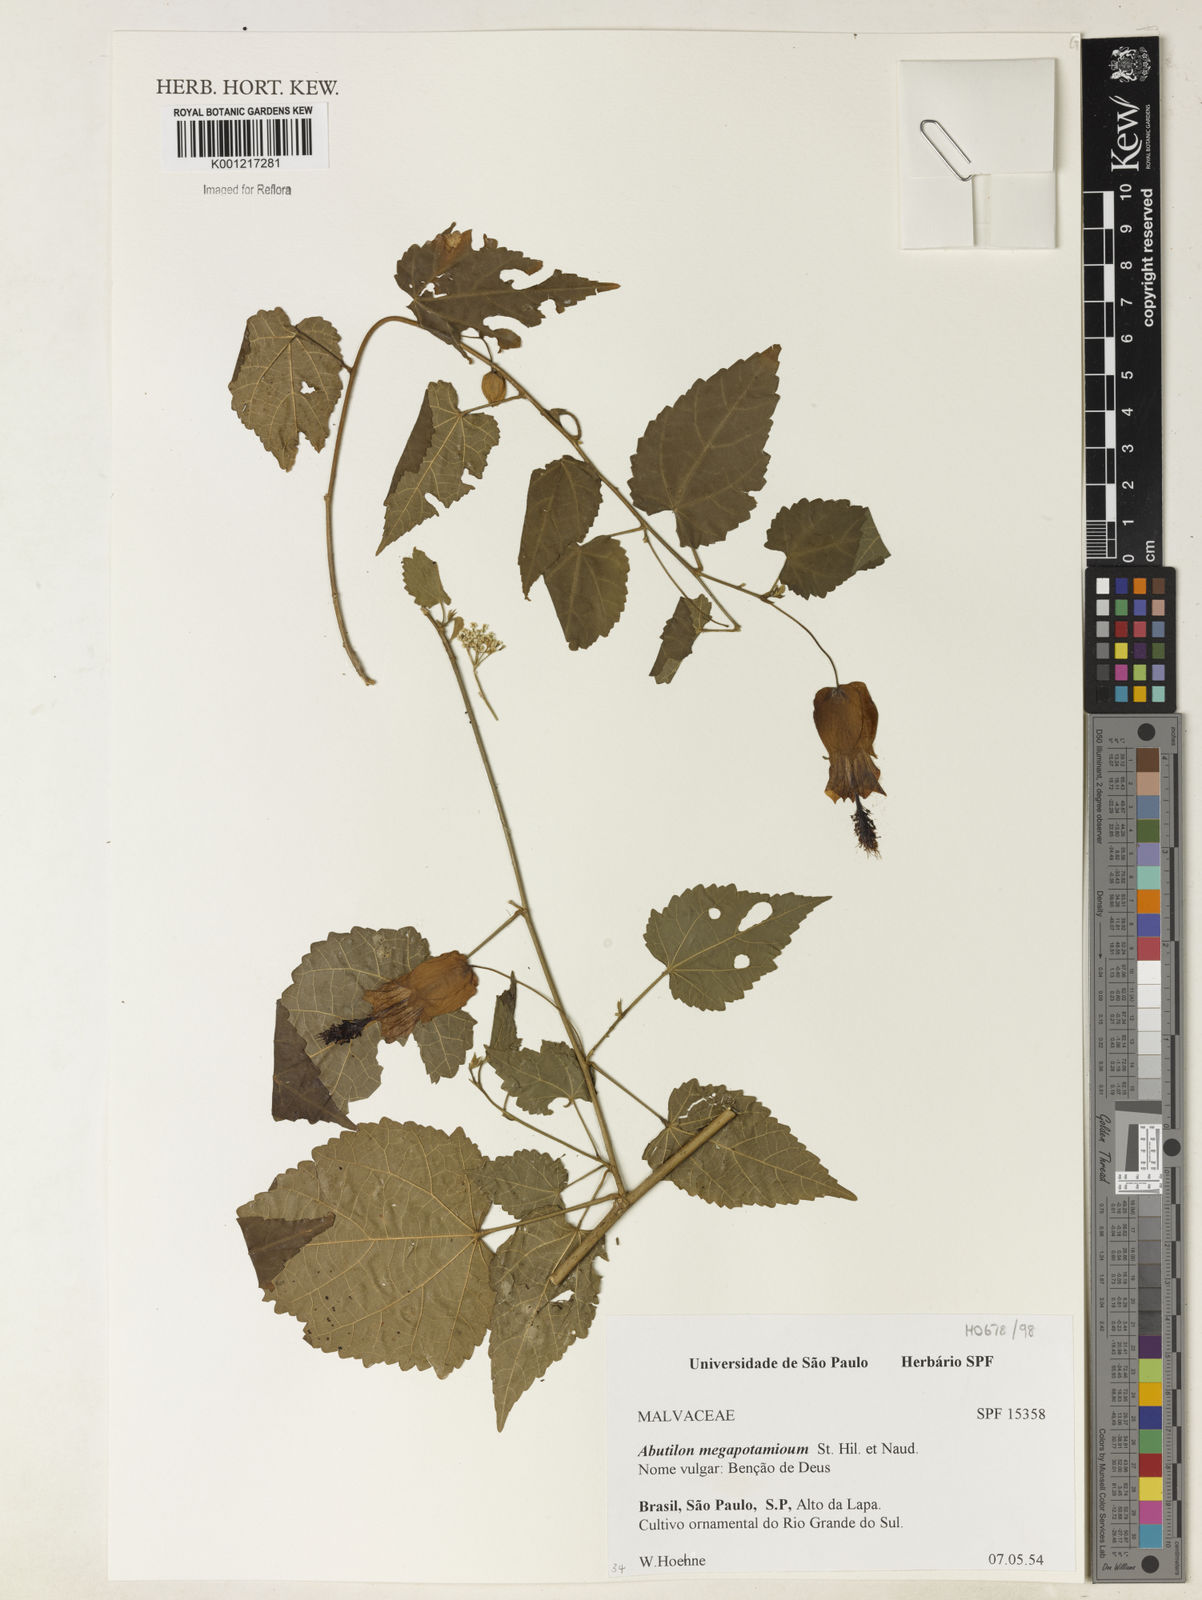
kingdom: Plantae
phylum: Tracheophyta
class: Magnoliopsida
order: Malvales
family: Malvaceae
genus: Callianthe
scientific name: Callianthe megapotamica
